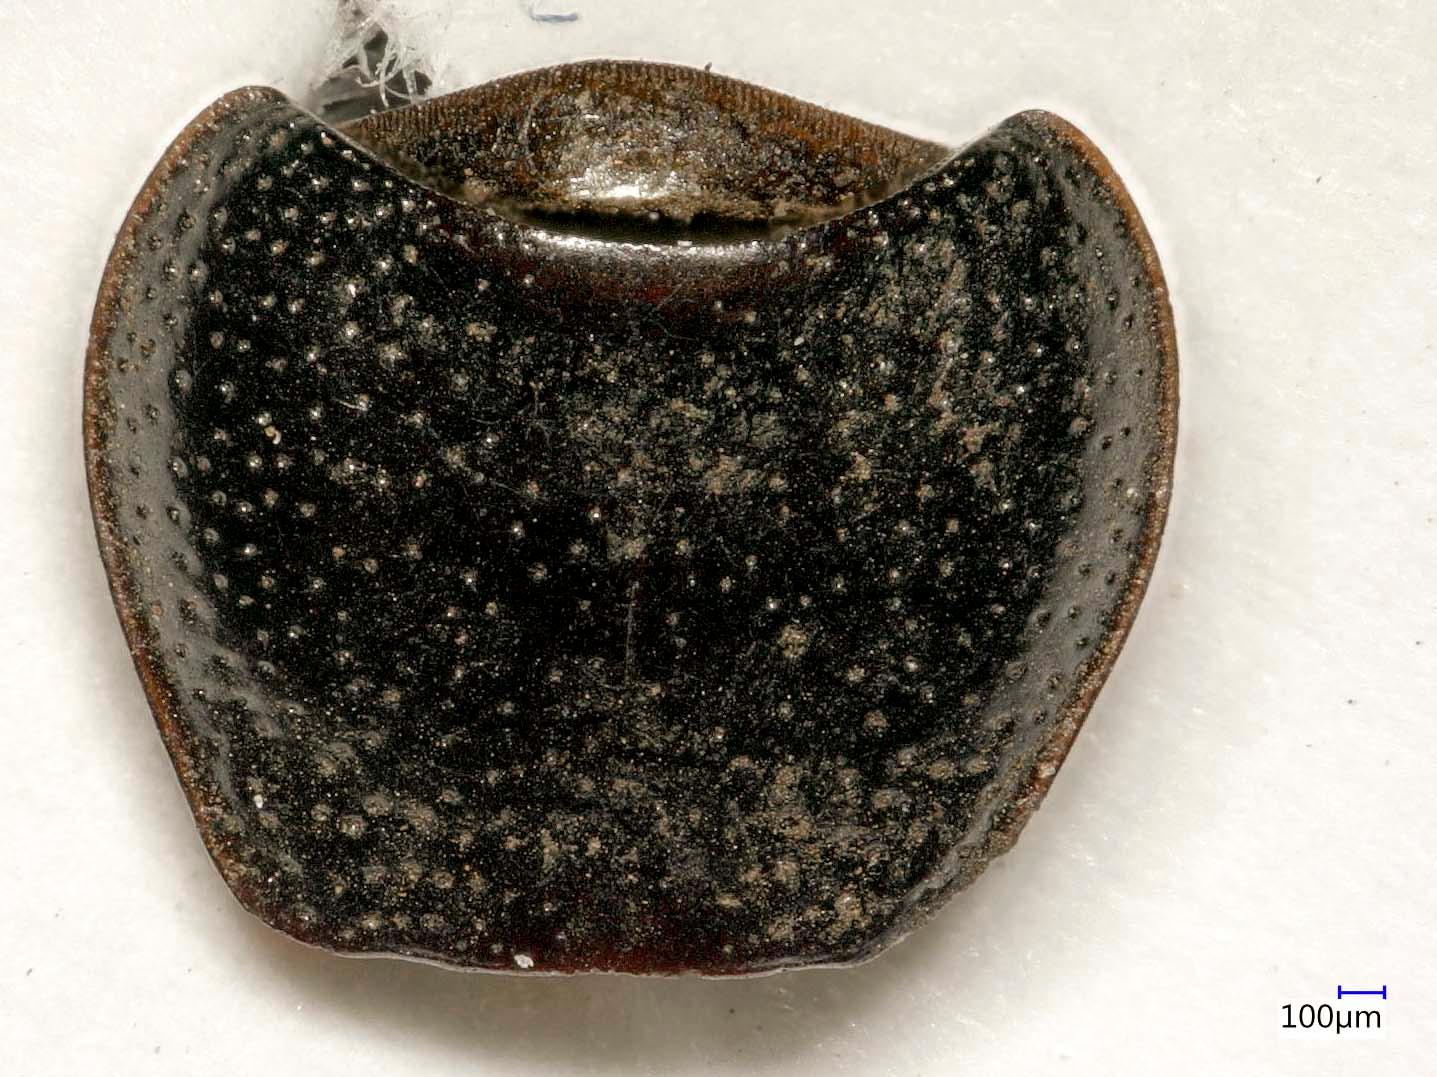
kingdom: Animalia
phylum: Arthropoda
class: Insecta
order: Coleoptera
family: Carabidae
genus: Dicheirus
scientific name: Dicheirus dilatatus
